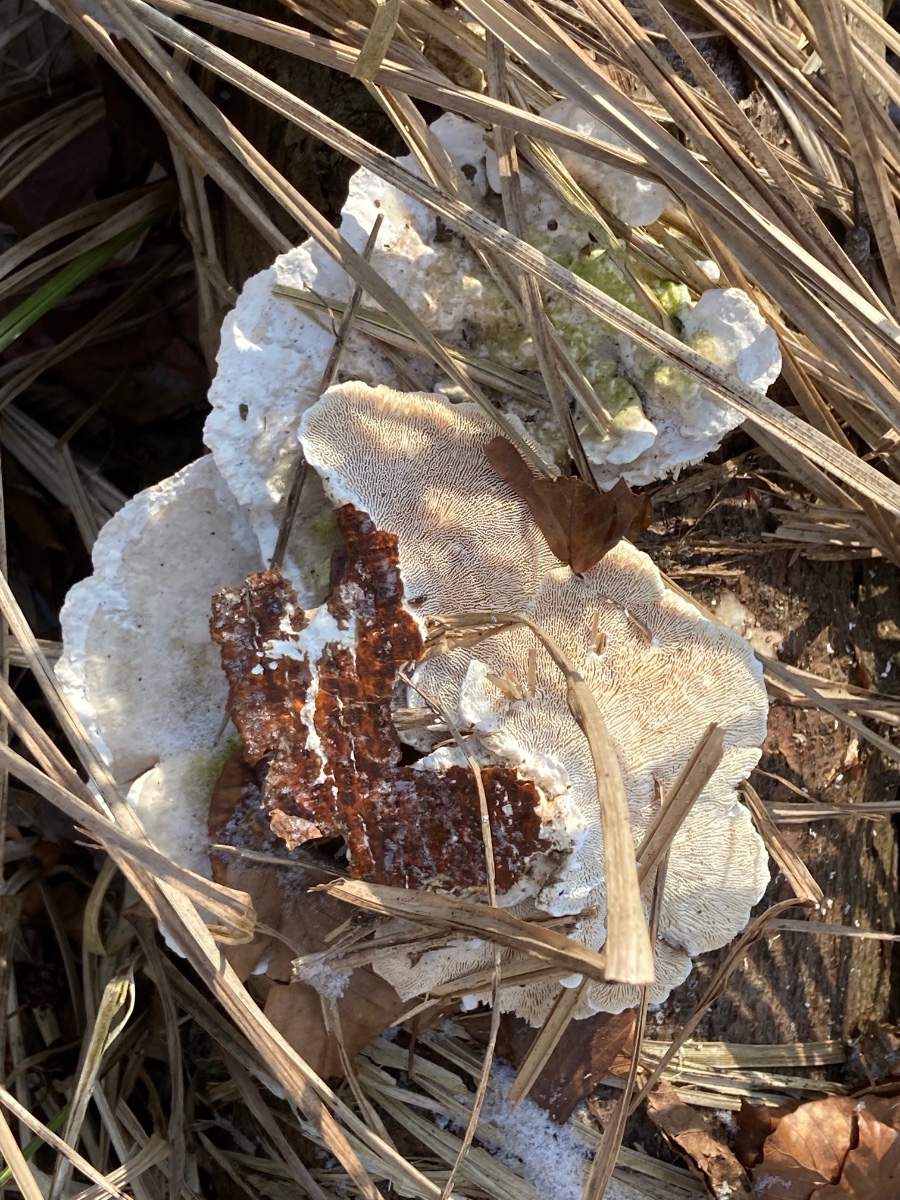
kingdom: Fungi
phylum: Basidiomycota
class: Agaricomycetes
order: Polyporales
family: Polyporaceae
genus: Trametes
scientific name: Trametes gibbosa
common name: puklet læderporesvamp
